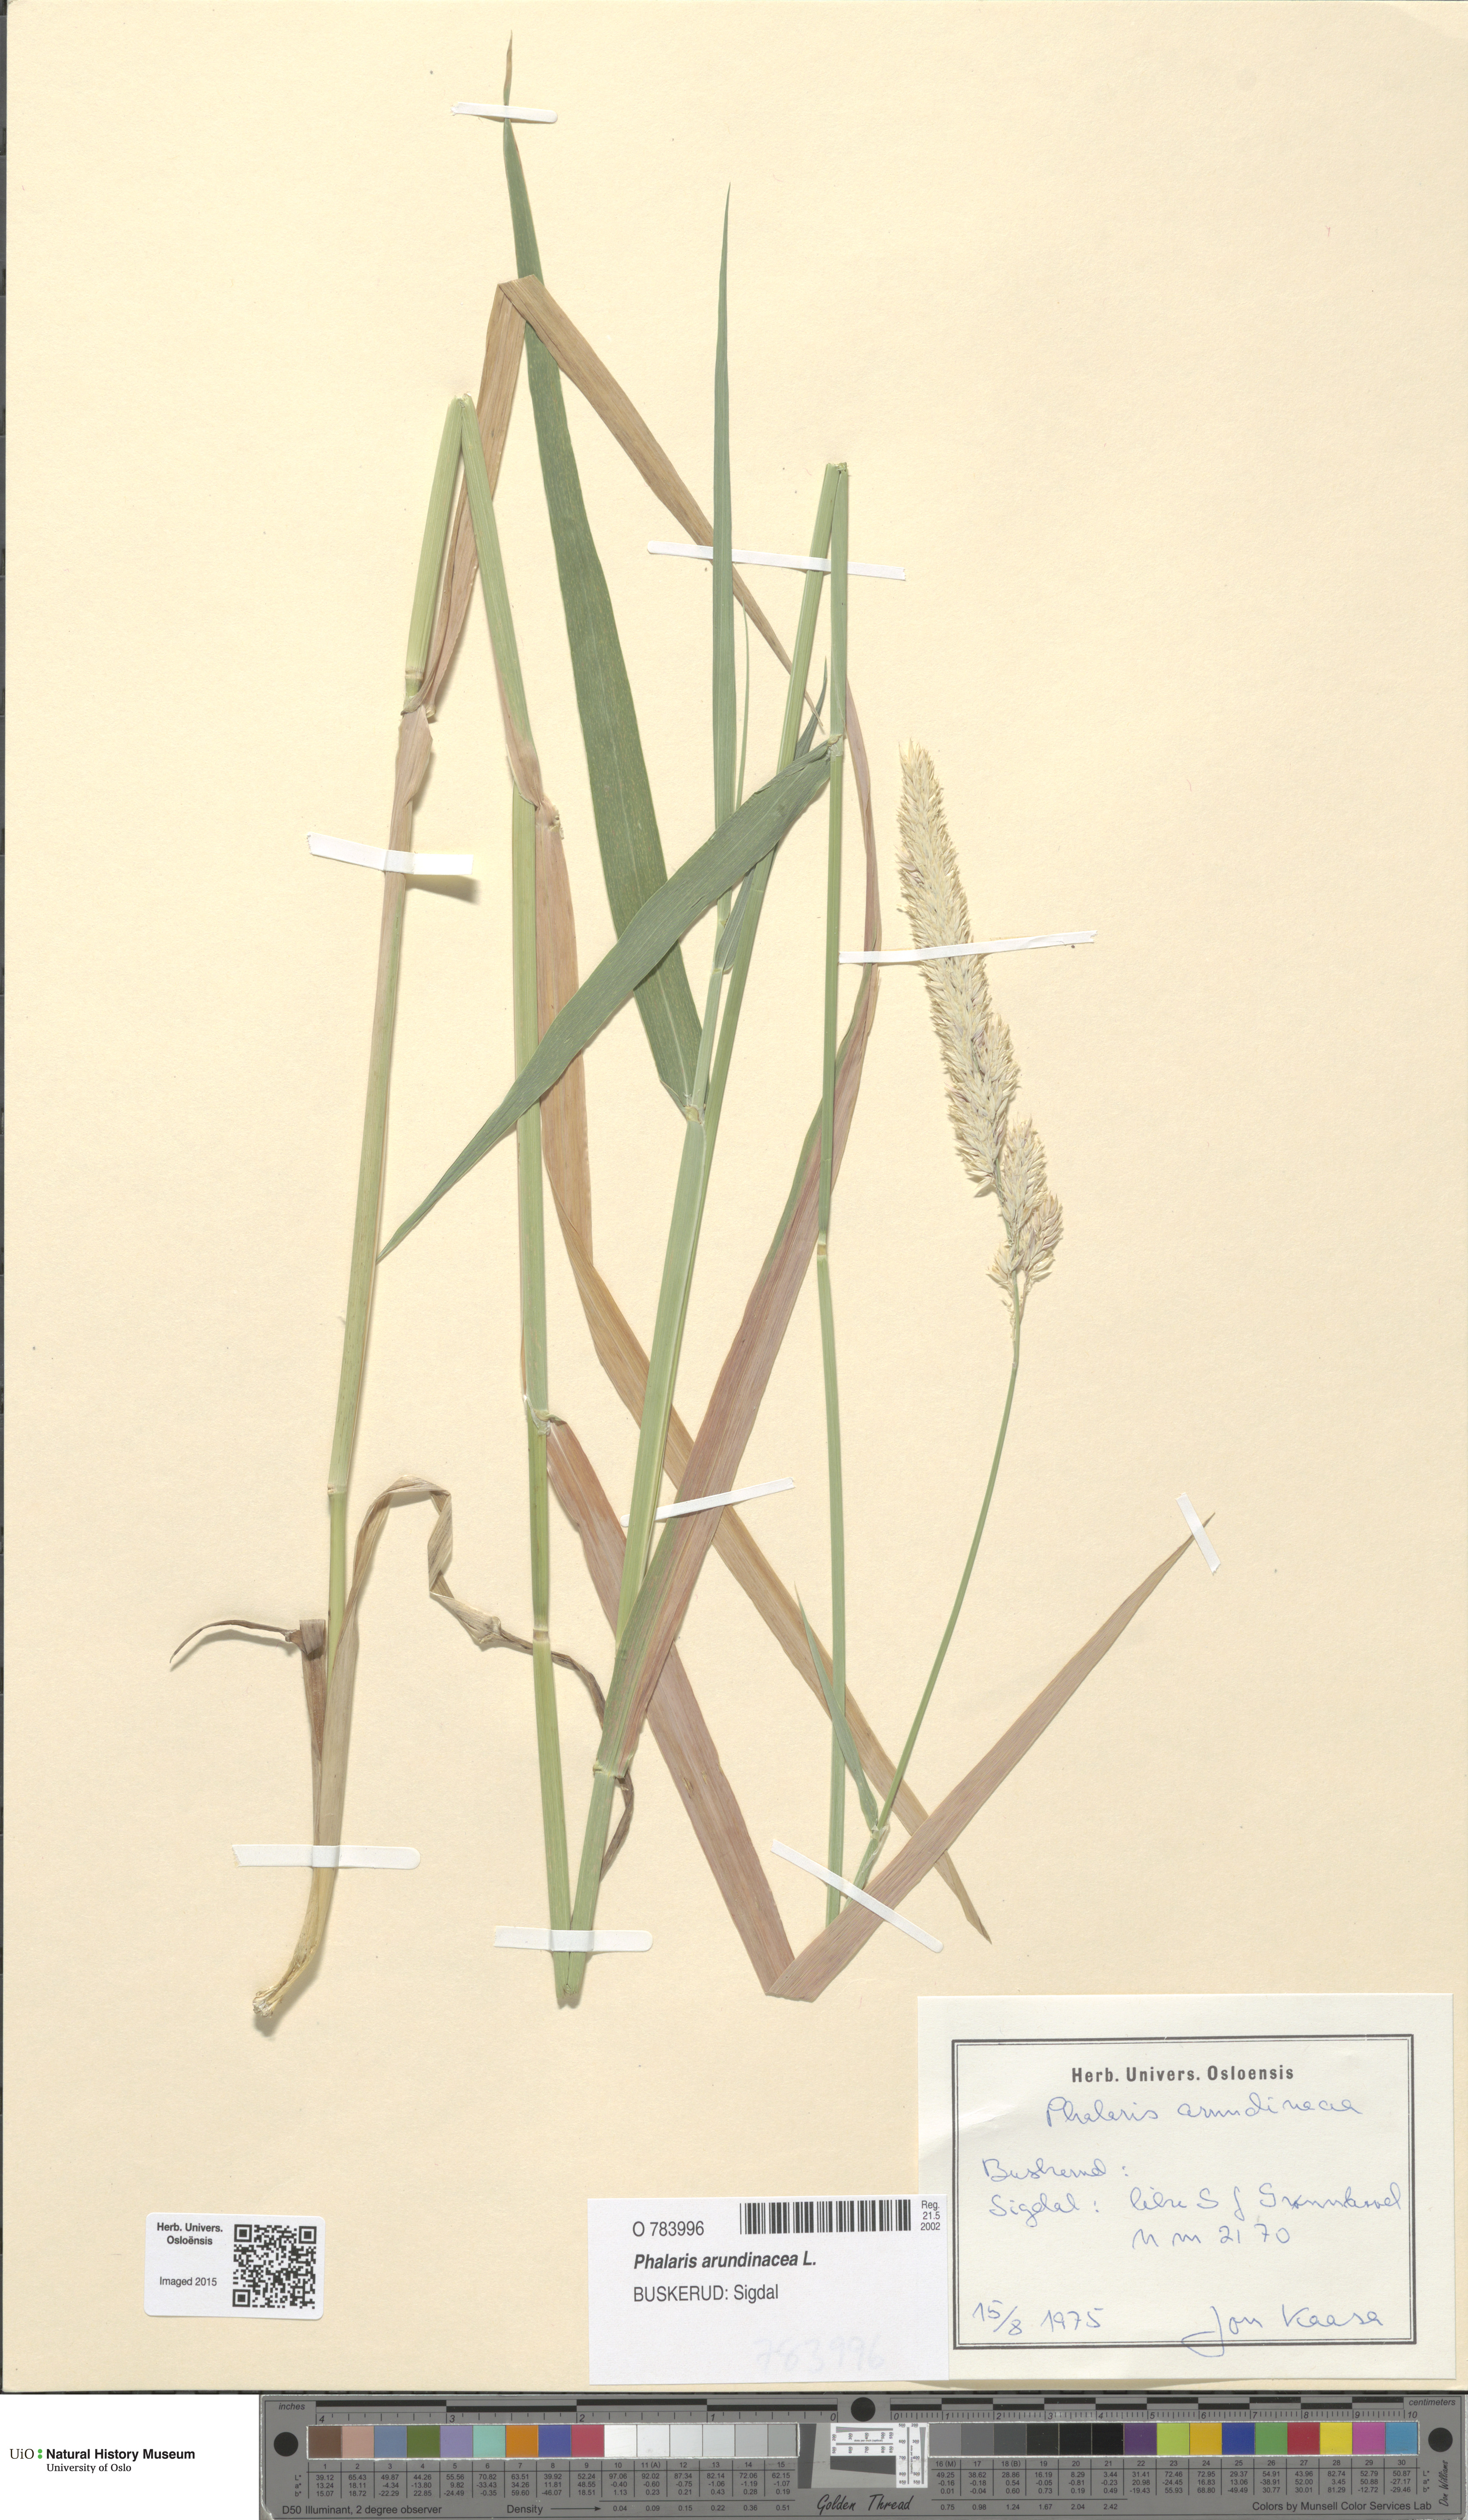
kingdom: Plantae
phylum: Tracheophyta
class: Liliopsida
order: Poales
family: Poaceae
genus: Phalaris
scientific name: Phalaris arundinacea
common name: Reed canary-grass
